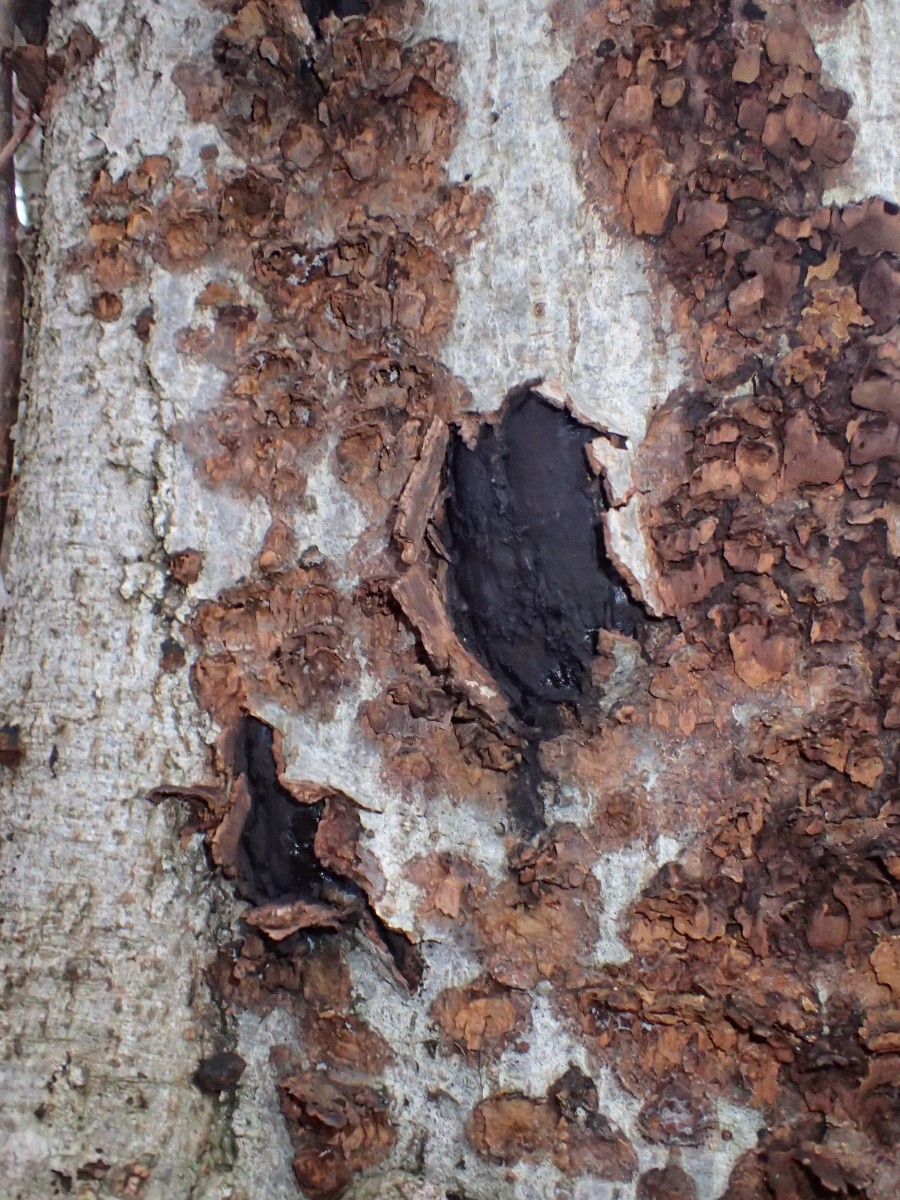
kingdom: Fungi
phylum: Ascomycota
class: Sordariomycetes
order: Boliniales
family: Boliniaceae
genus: Camarops
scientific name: Camarops polysperma
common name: elle-kulsnegl
